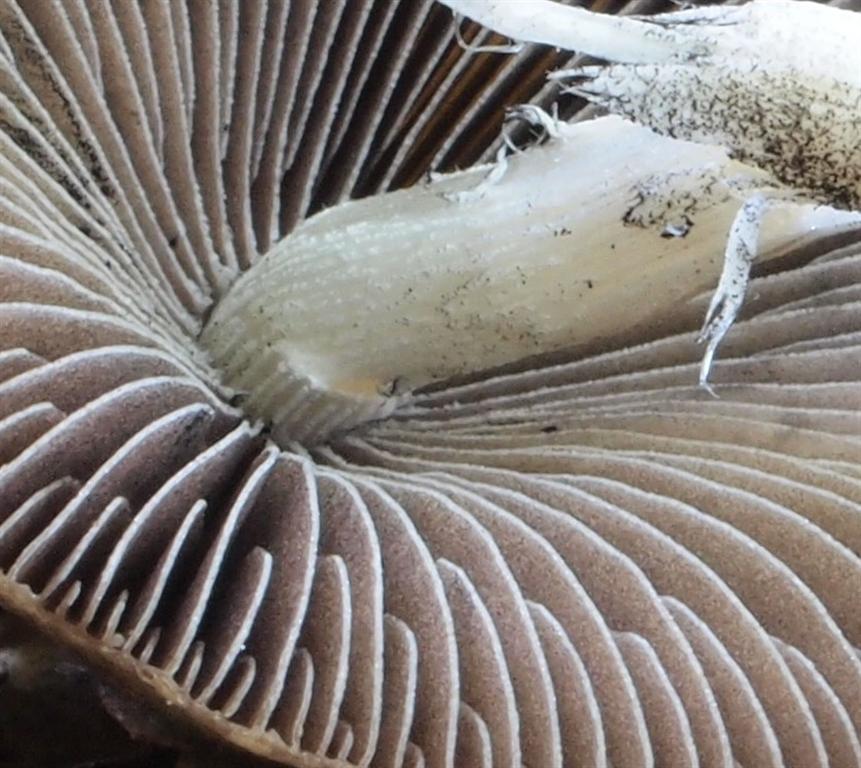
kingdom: Fungi
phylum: Basidiomycota
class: Agaricomycetes
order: Agaricales
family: Psathyrellaceae
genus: Parasola
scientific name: Parasola conopilea
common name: kegle-hjulhat
